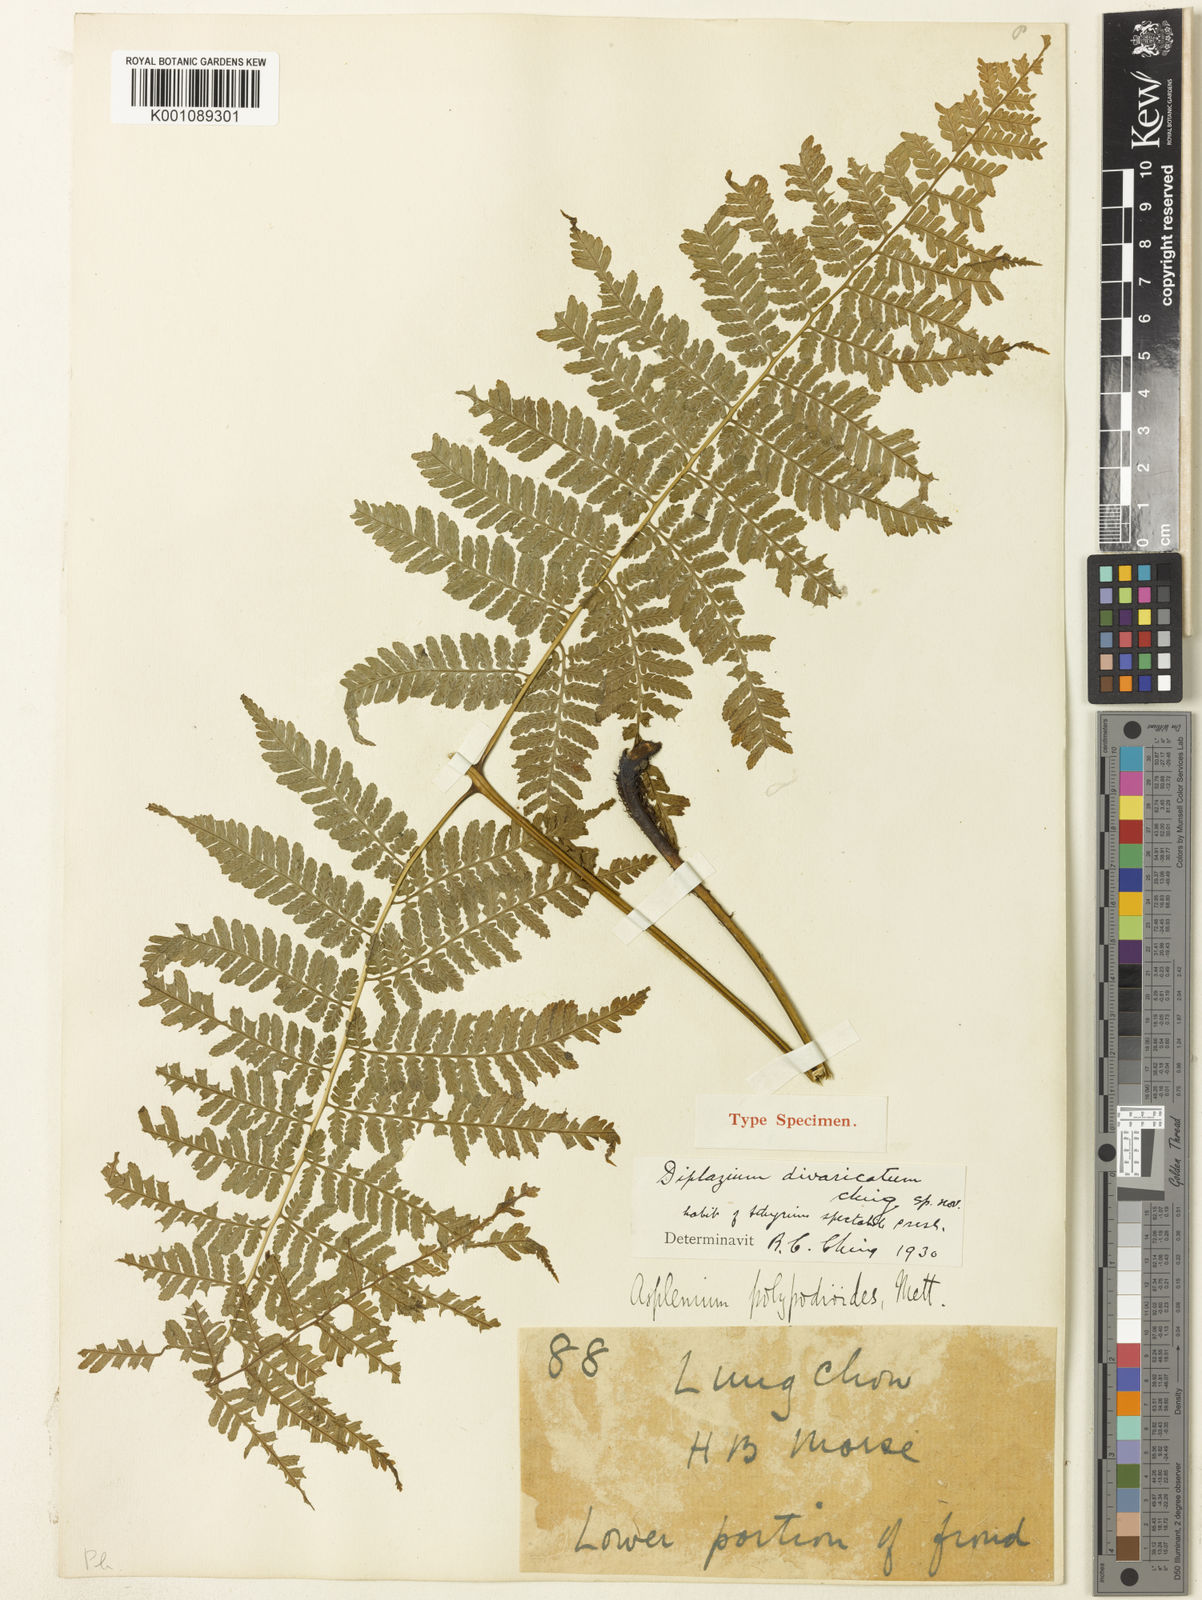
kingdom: Plantae
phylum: Tracheophyta
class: Polypodiopsida
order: Polypodiales
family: Athyriaceae
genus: Diplazium
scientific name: Diplazium spectabile
